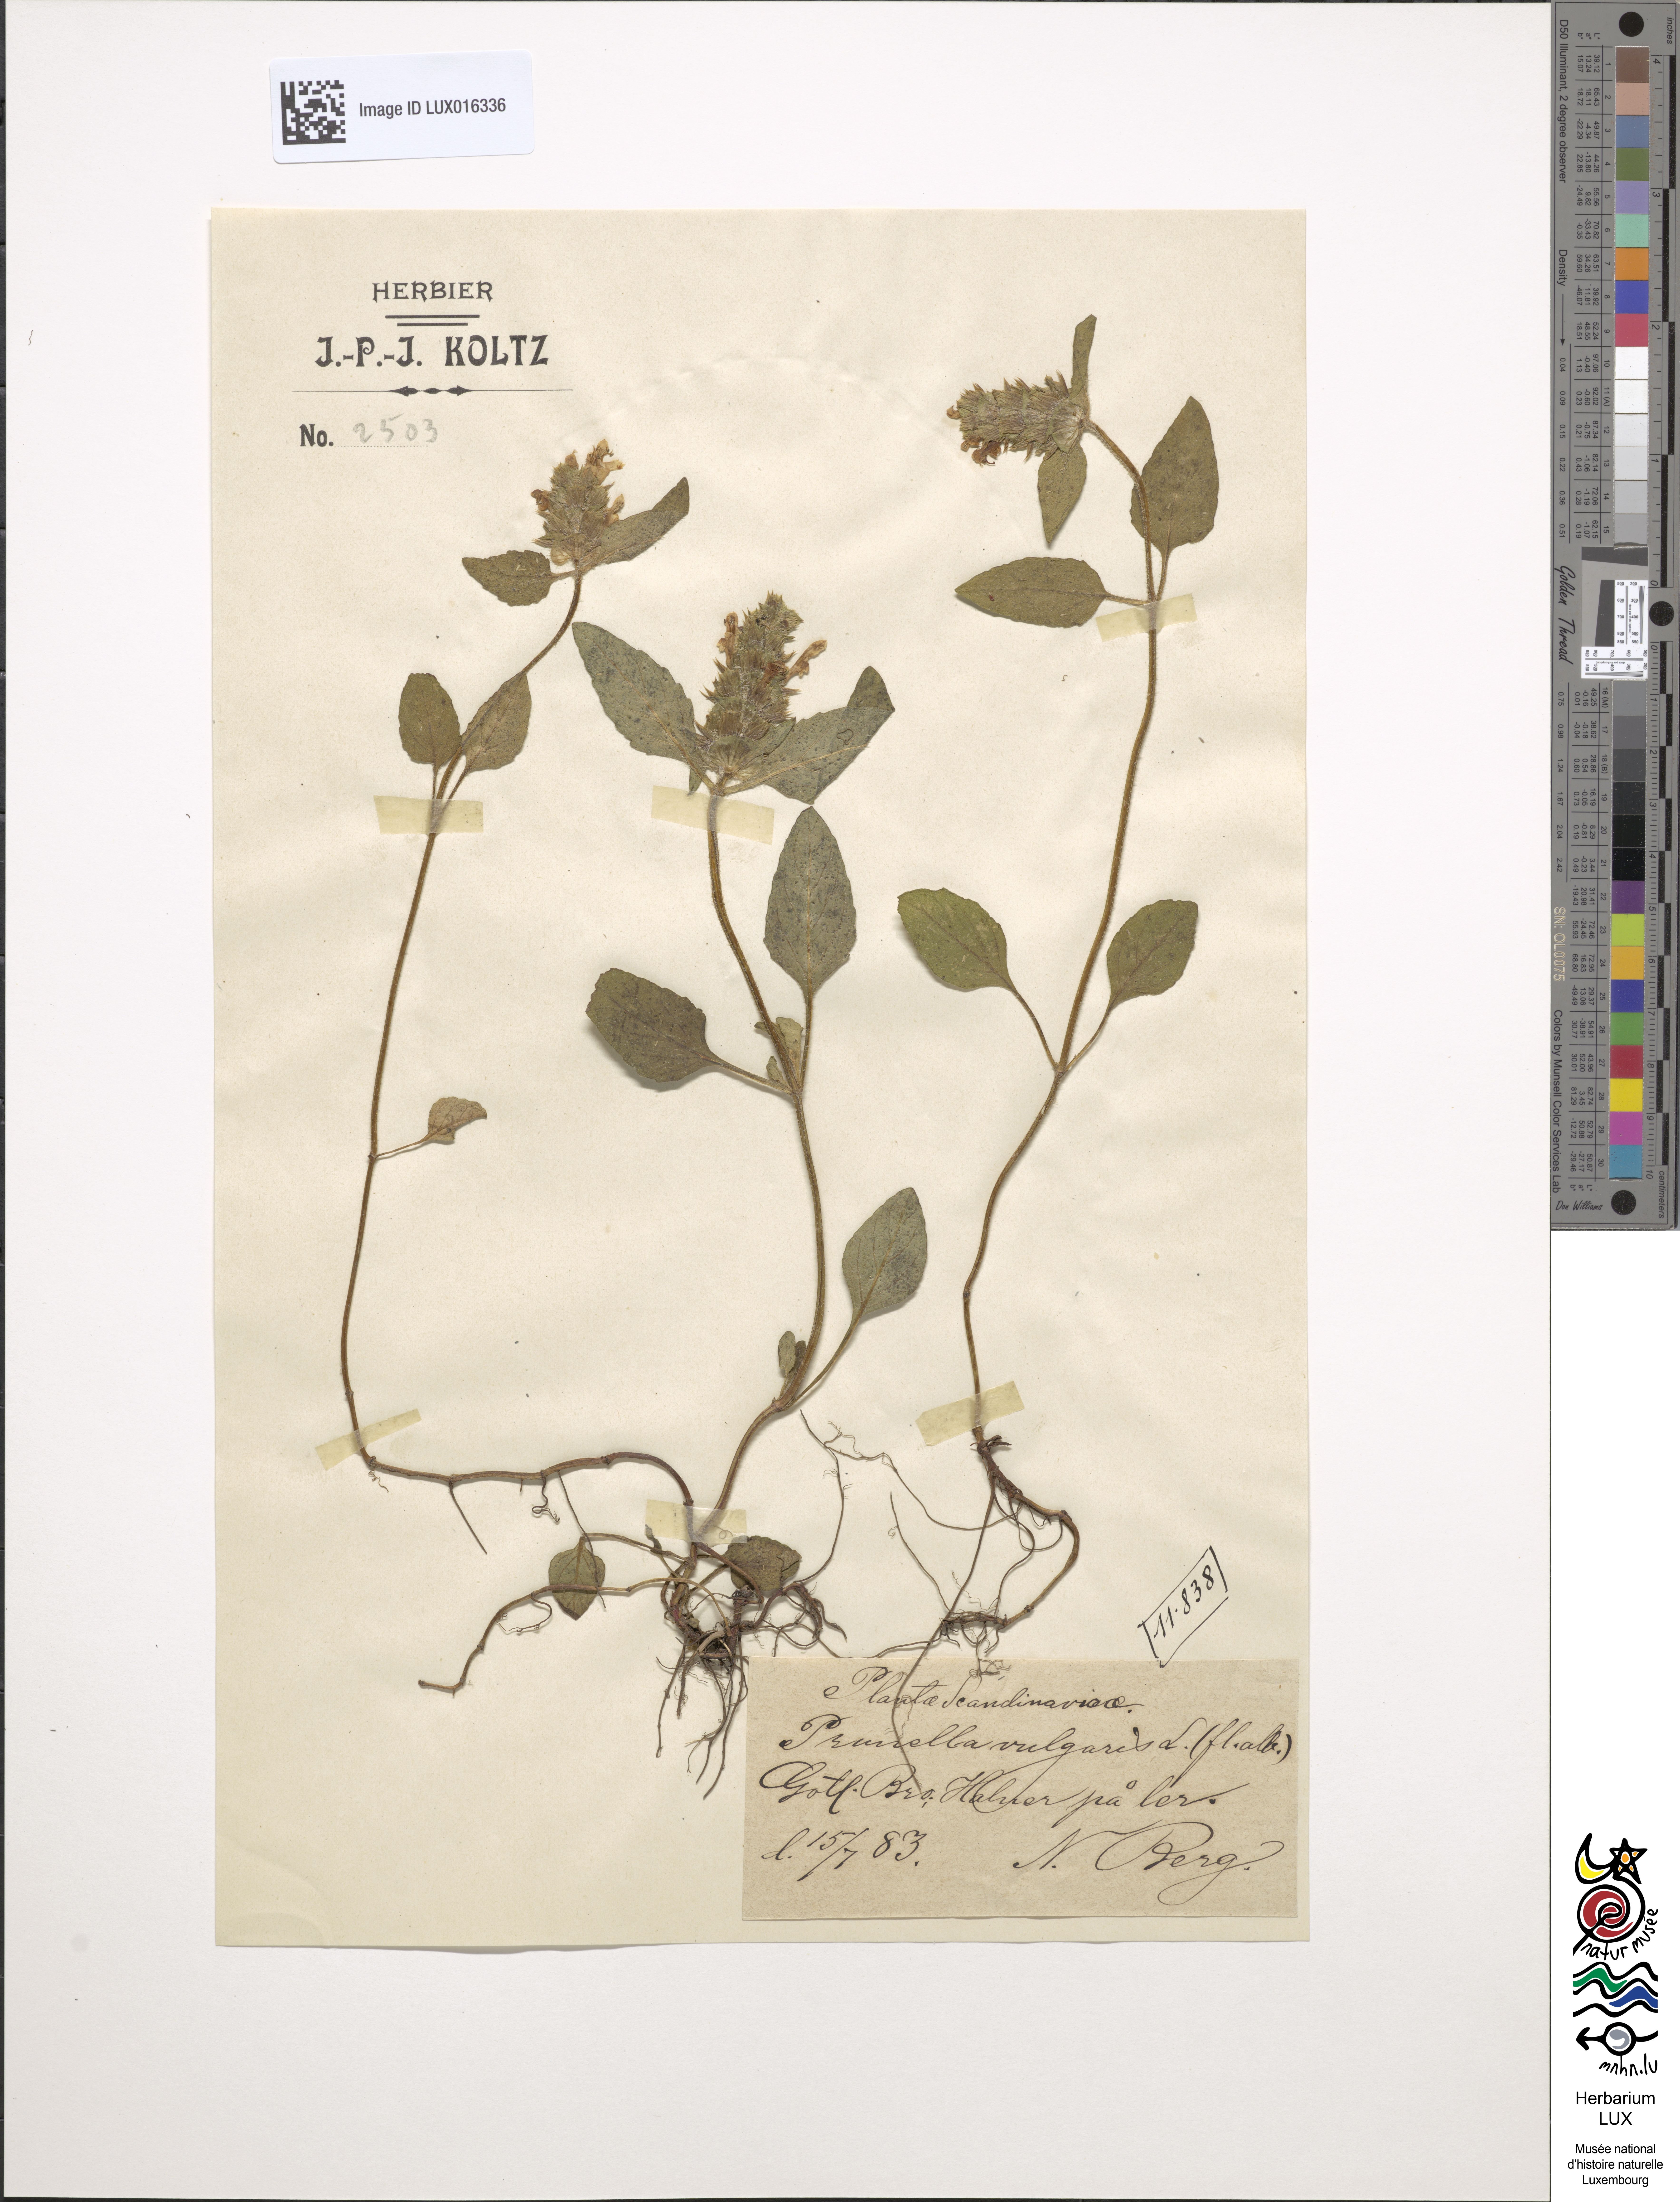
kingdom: Plantae
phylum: Tracheophyta
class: Magnoliopsida
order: Lamiales
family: Lamiaceae
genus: Prunella
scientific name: Prunella vulgaris
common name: Heal-all
